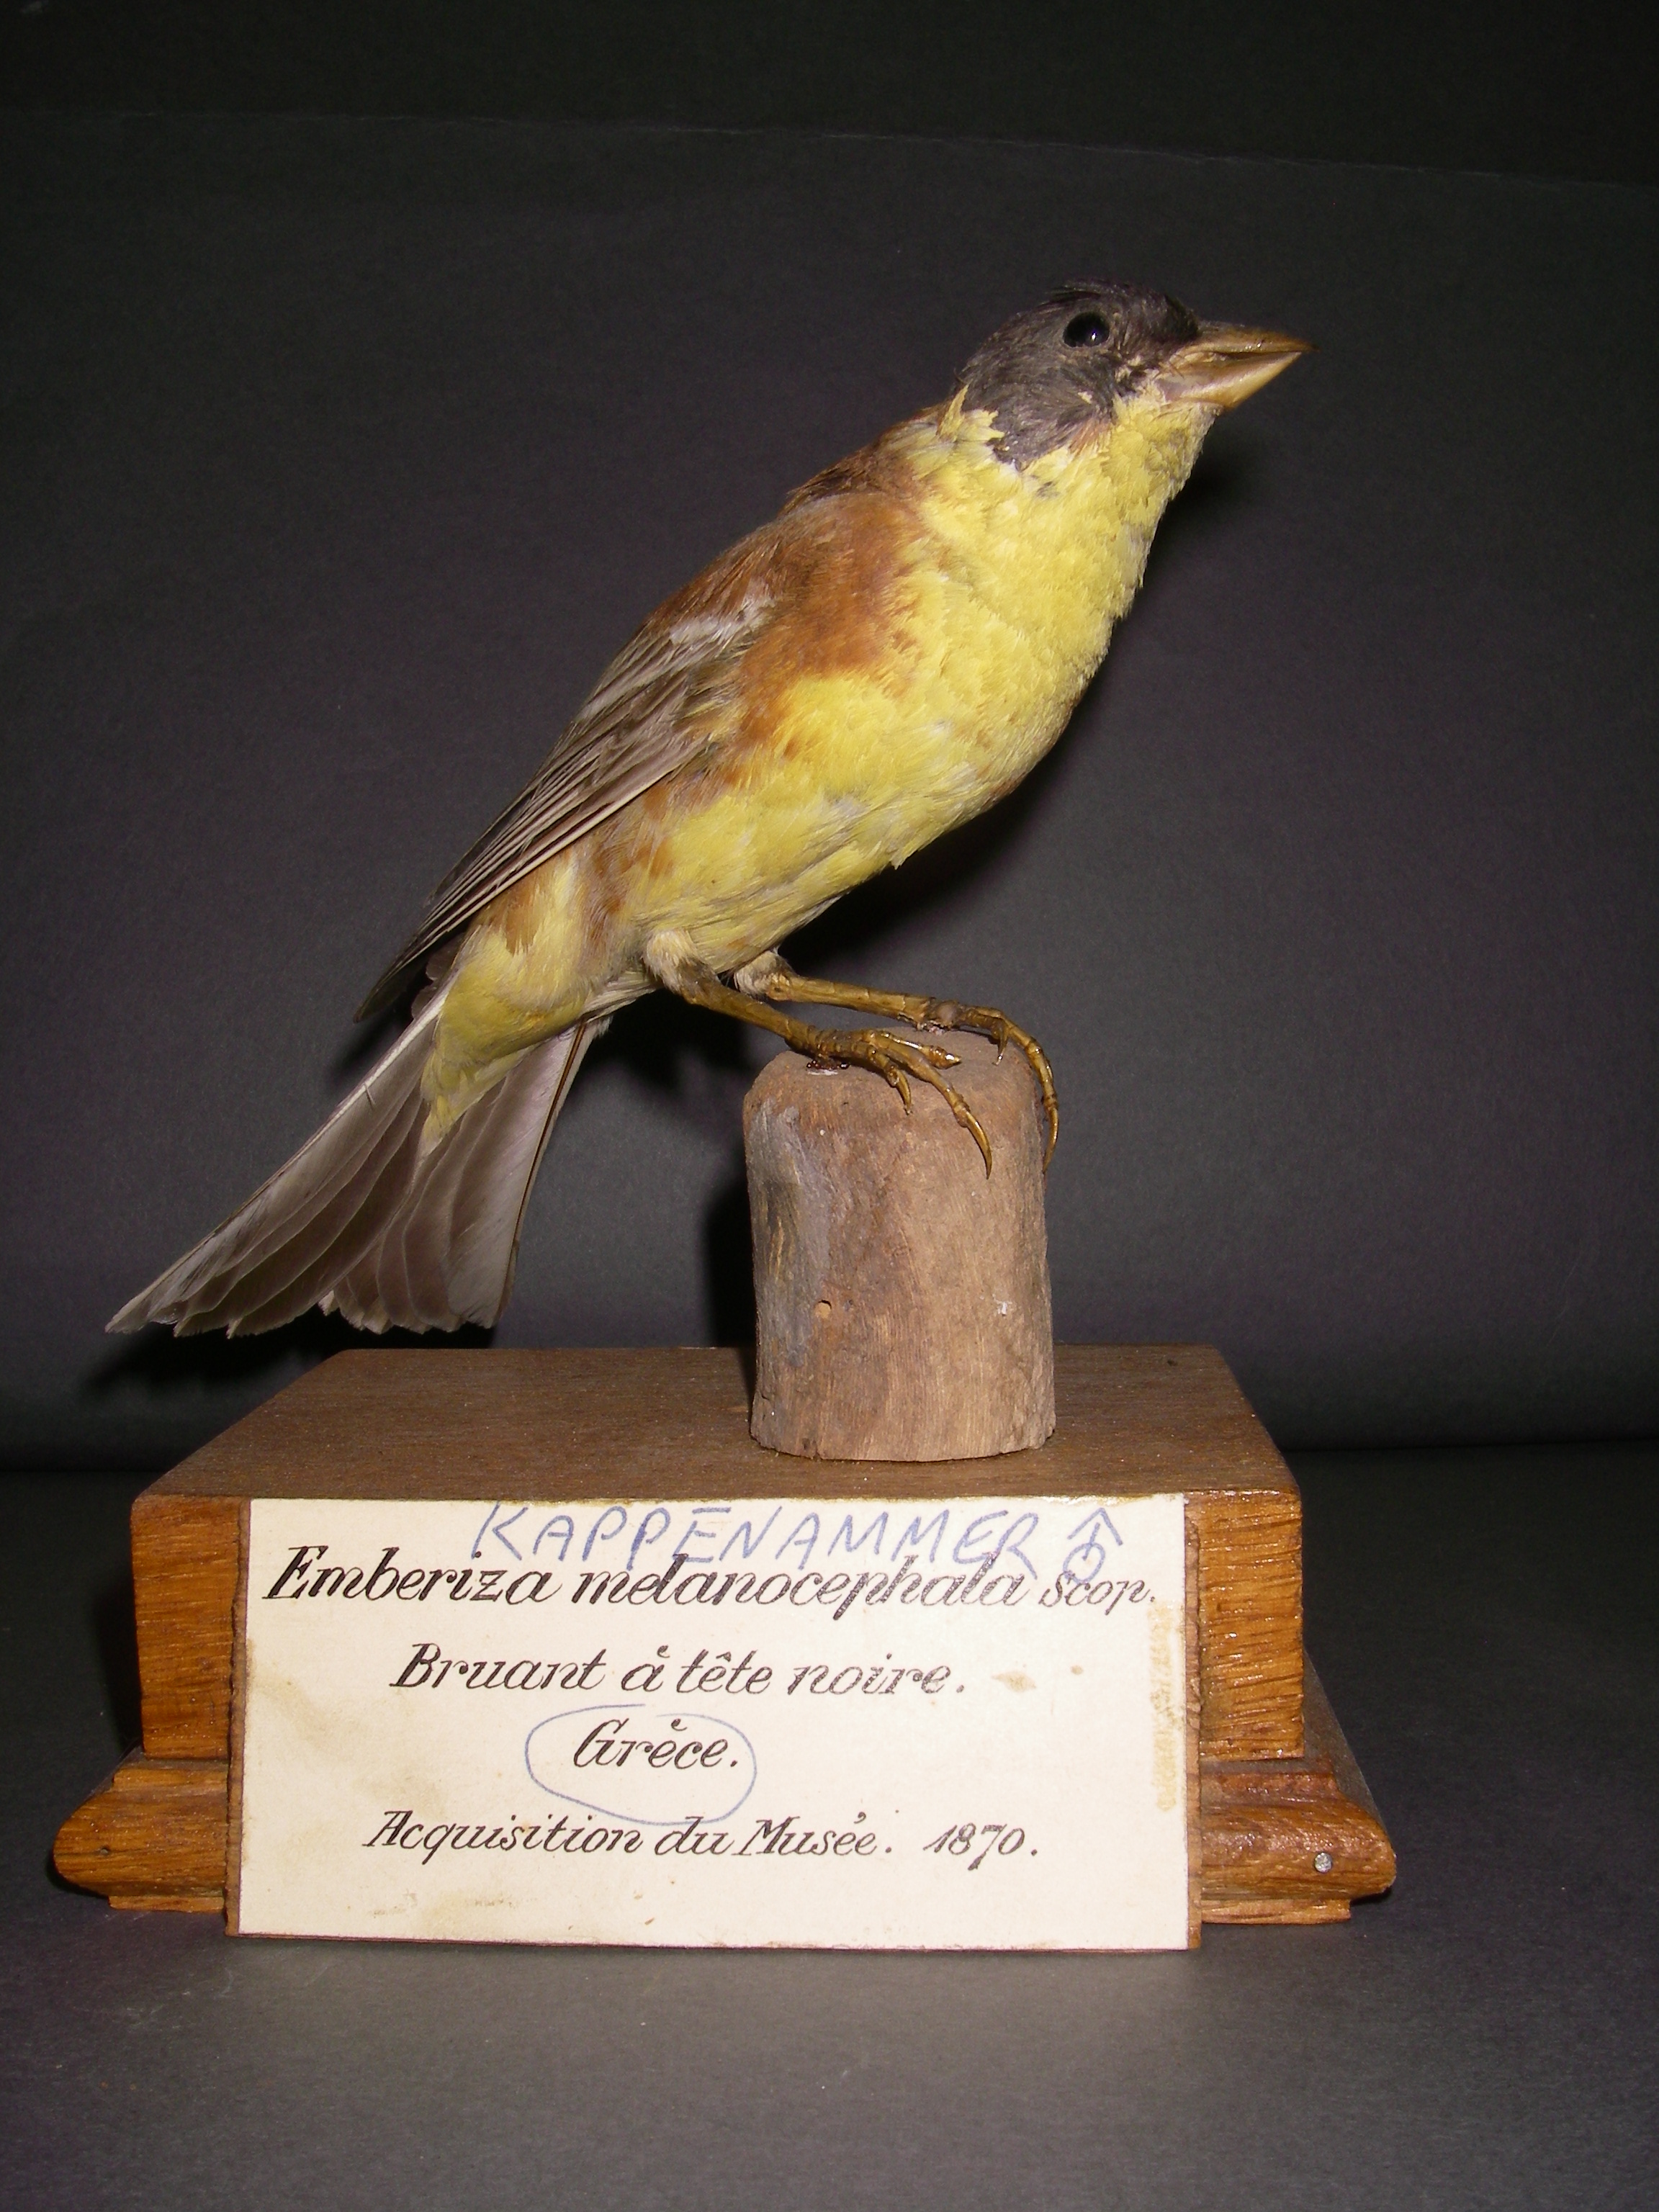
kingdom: Animalia
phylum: Chordata
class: Aves
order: Passeriformes
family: Emberizidae
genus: Emberiza
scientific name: Emberiza melanocephala
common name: Black-headed bunting
